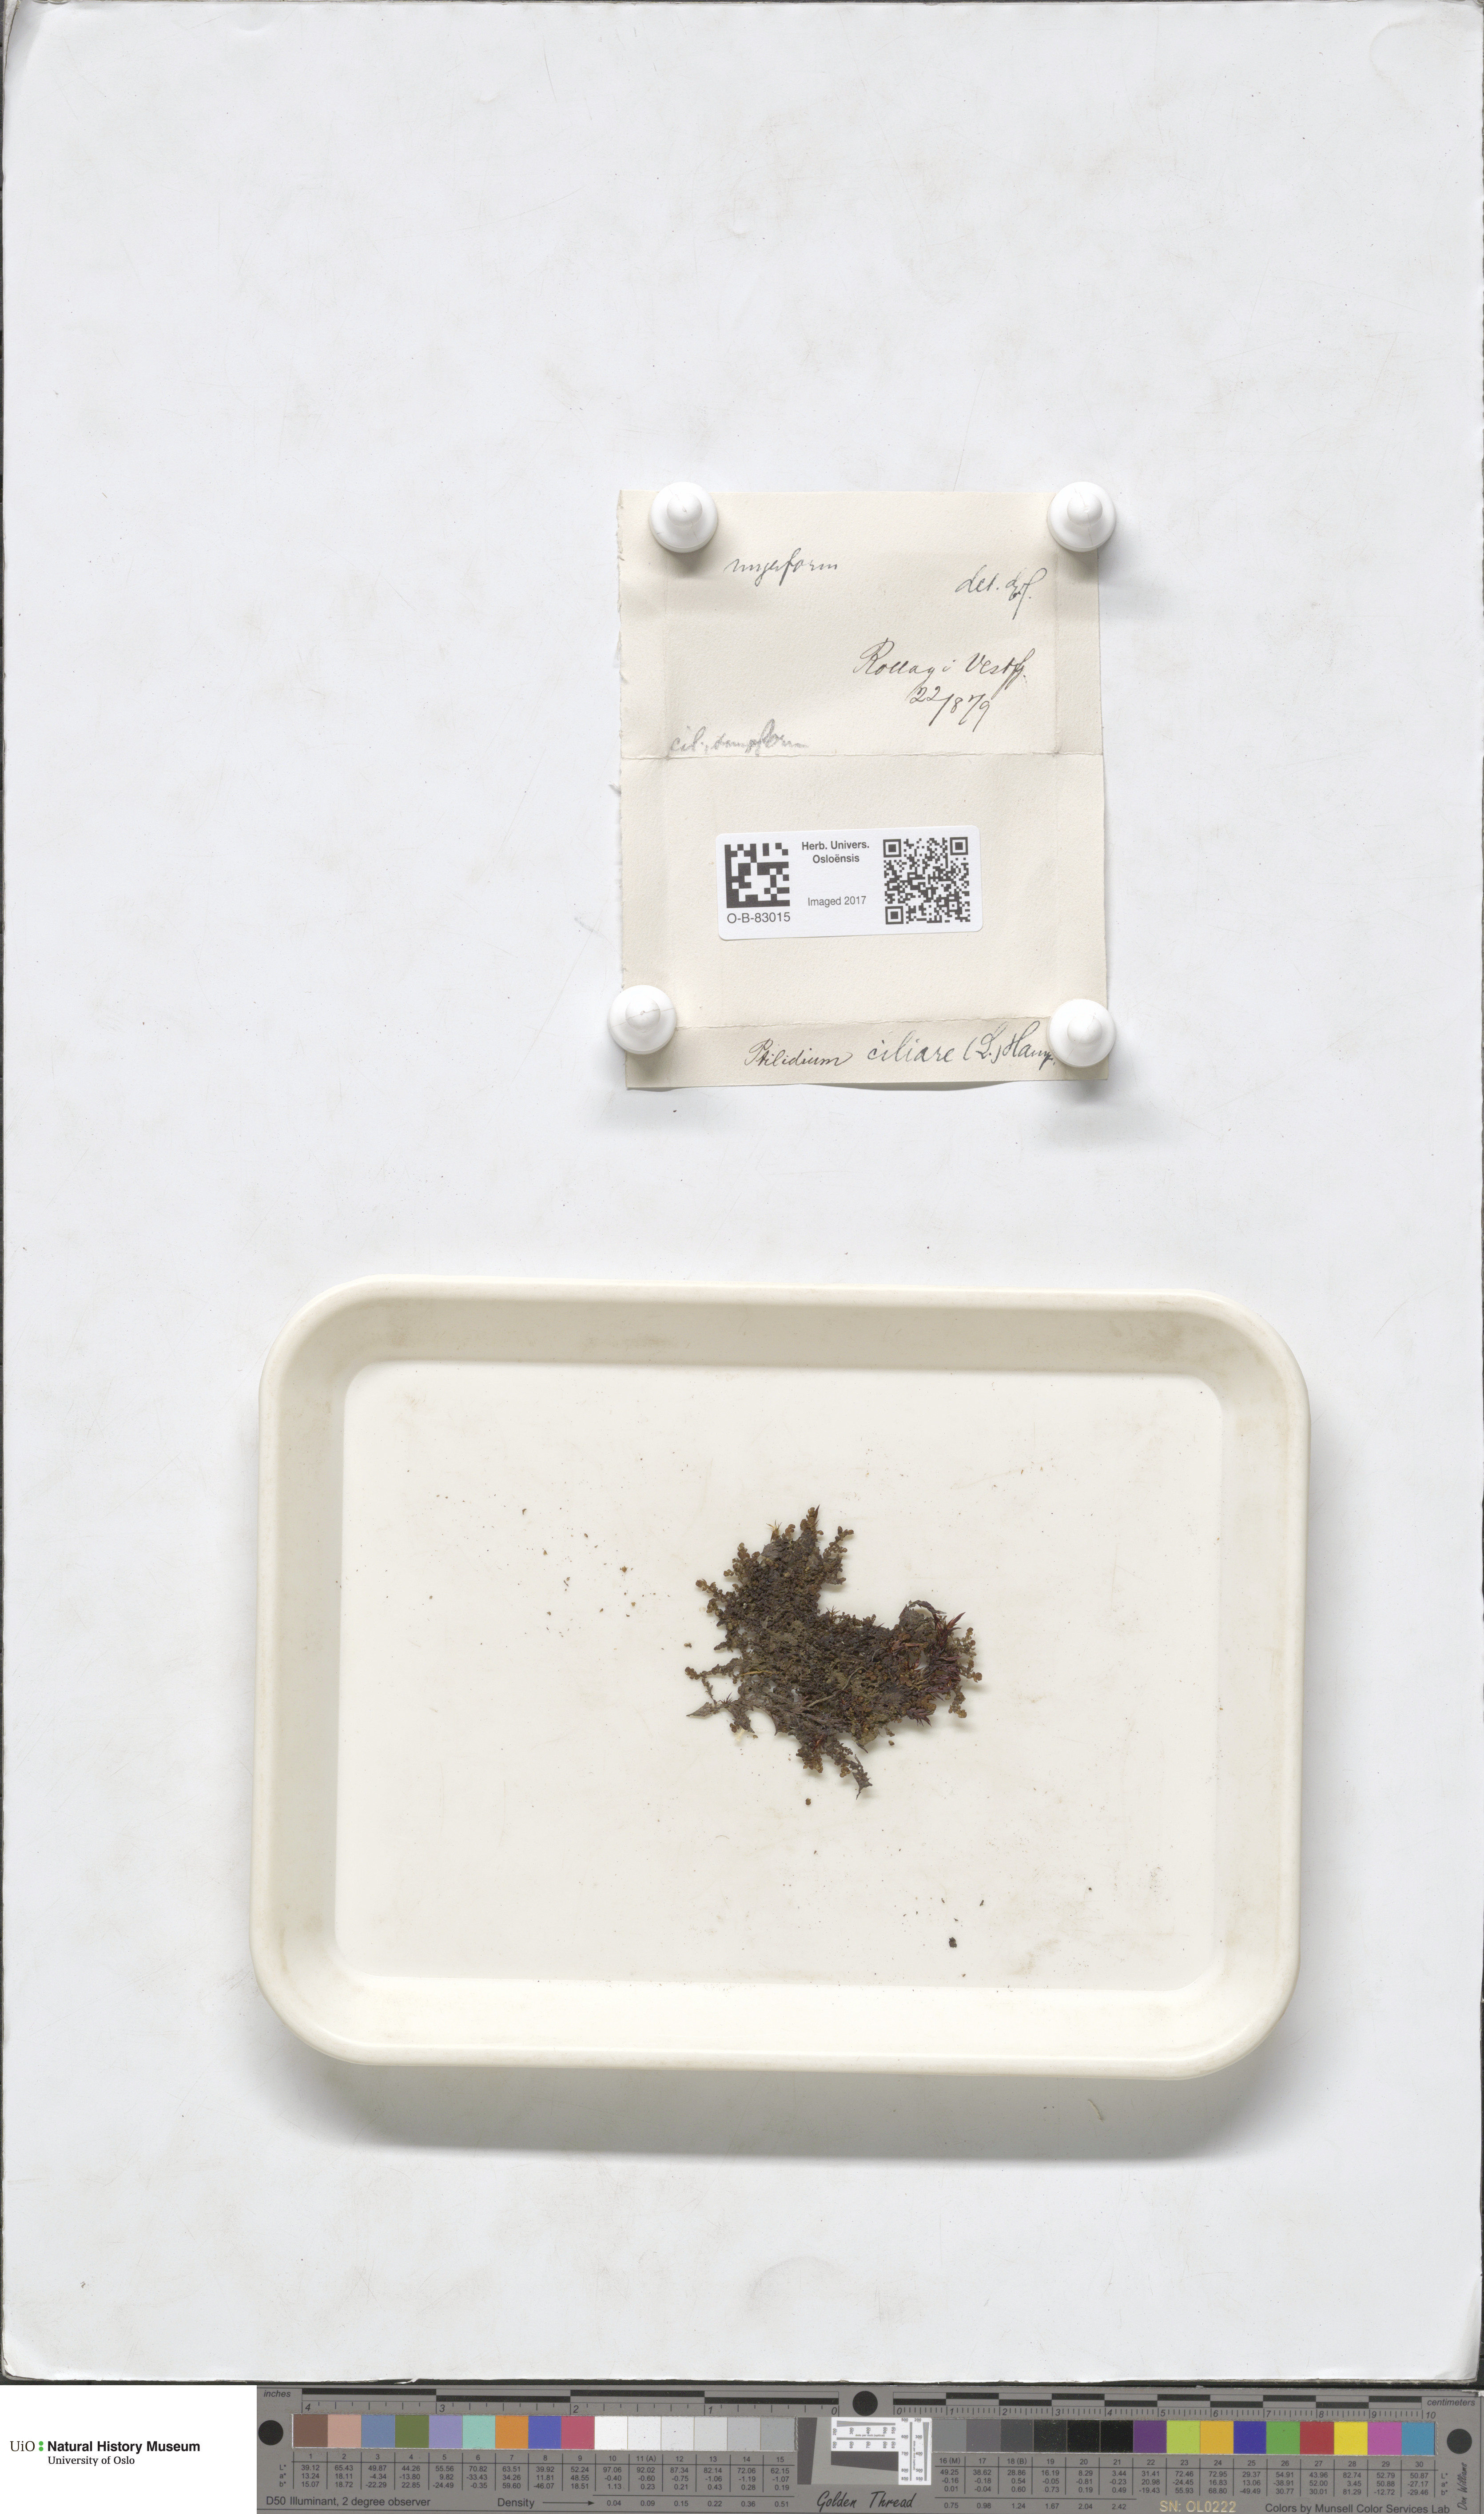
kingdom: Plantae
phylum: Marchantiophyta
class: Jungermanniopsida
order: Ptilidiales
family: Ptilidiaceae
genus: Ptilidium
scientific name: Ptilidium ciliare
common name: Ciliate fringewort
